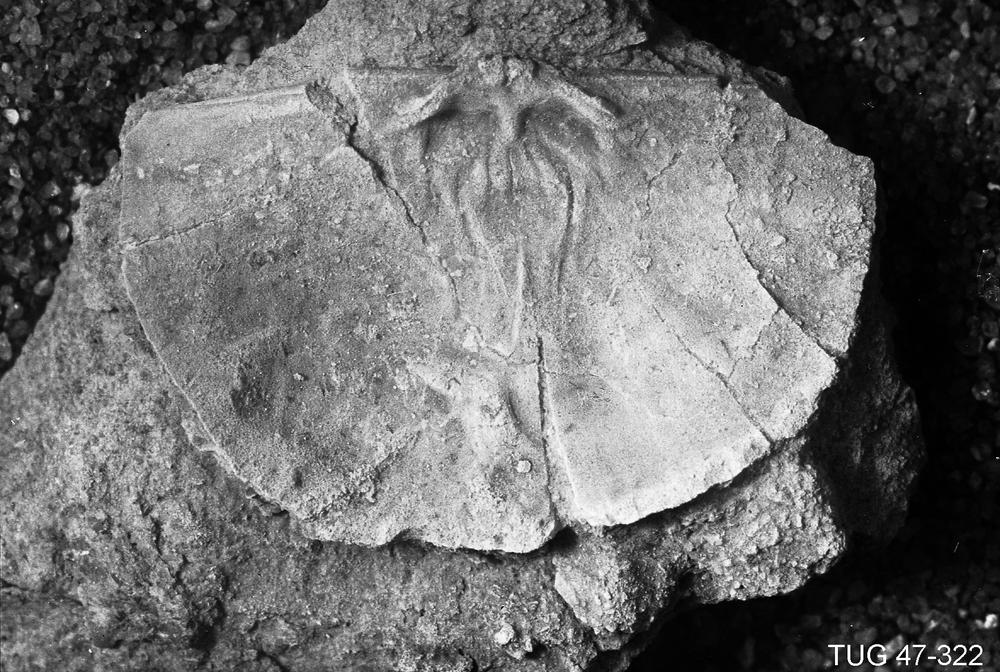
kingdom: Animalia
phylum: Brachiopoda
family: Strophomenidae
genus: Holtedahlina
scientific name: Holtedahlina sakuensis
